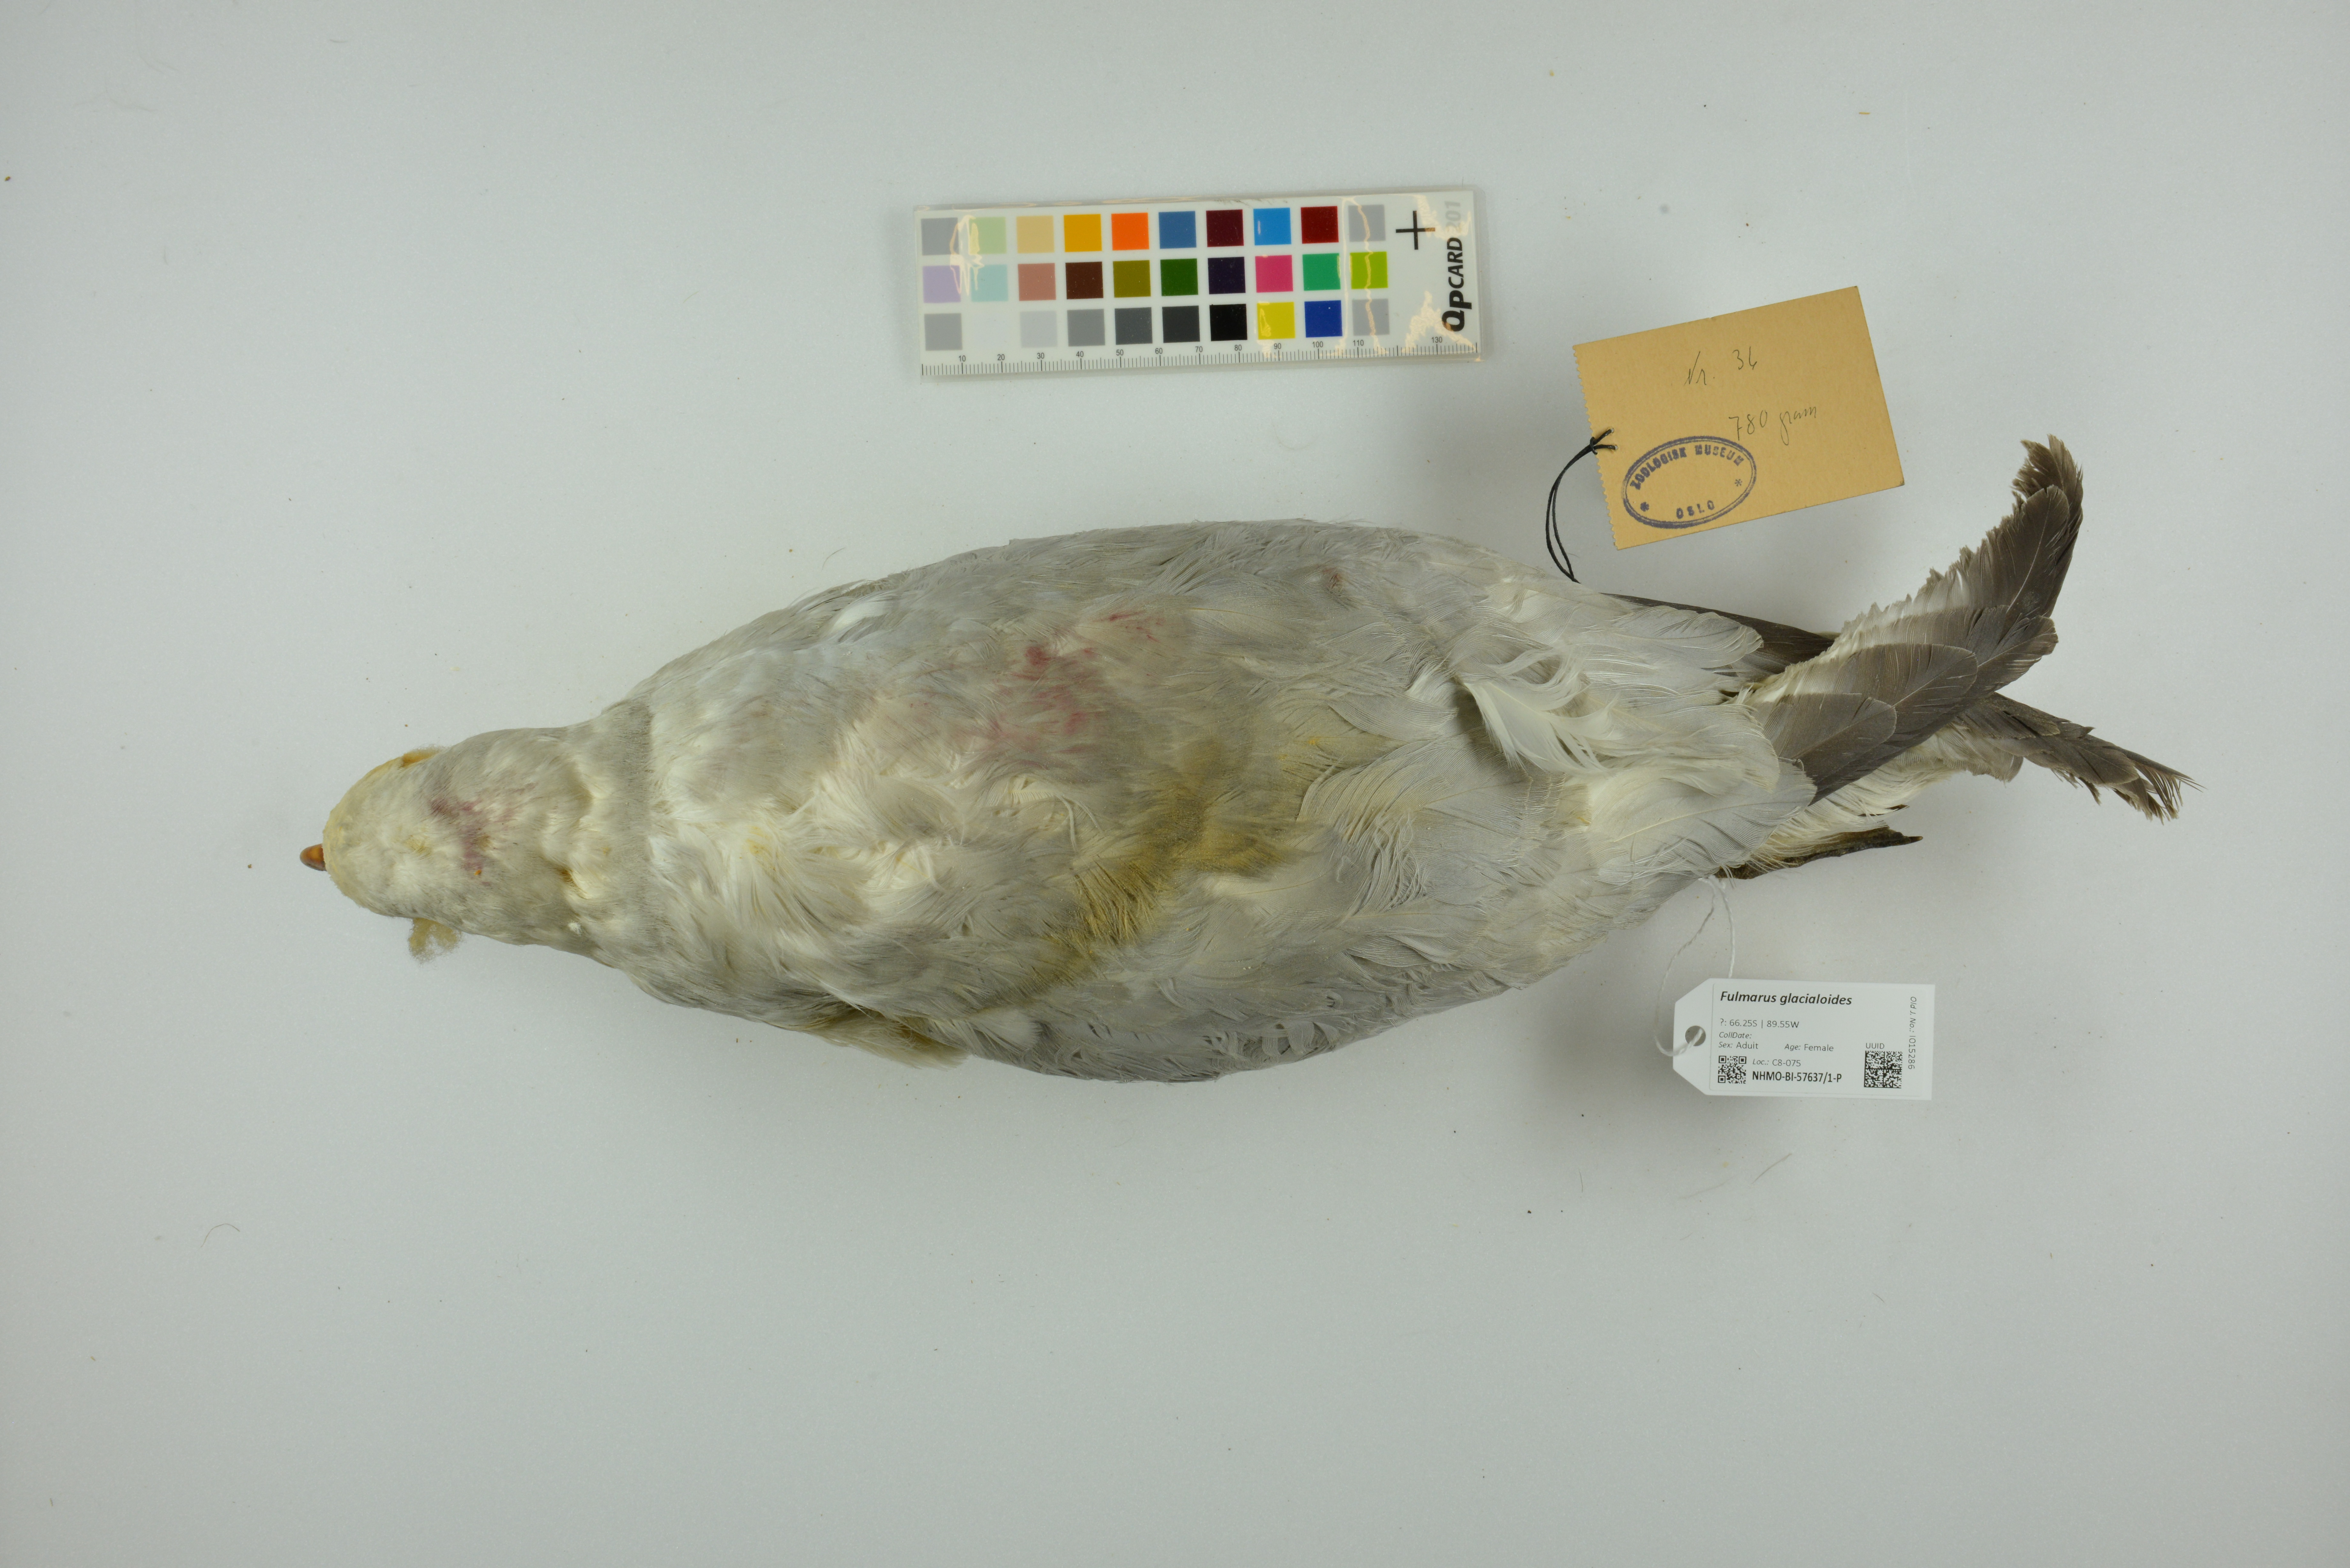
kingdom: Animalia
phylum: Chordata
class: Aves
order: Procellariiformes
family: Procellariidae
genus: Fulmarus
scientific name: Fulmarus glacialoides
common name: Southern fulmar
